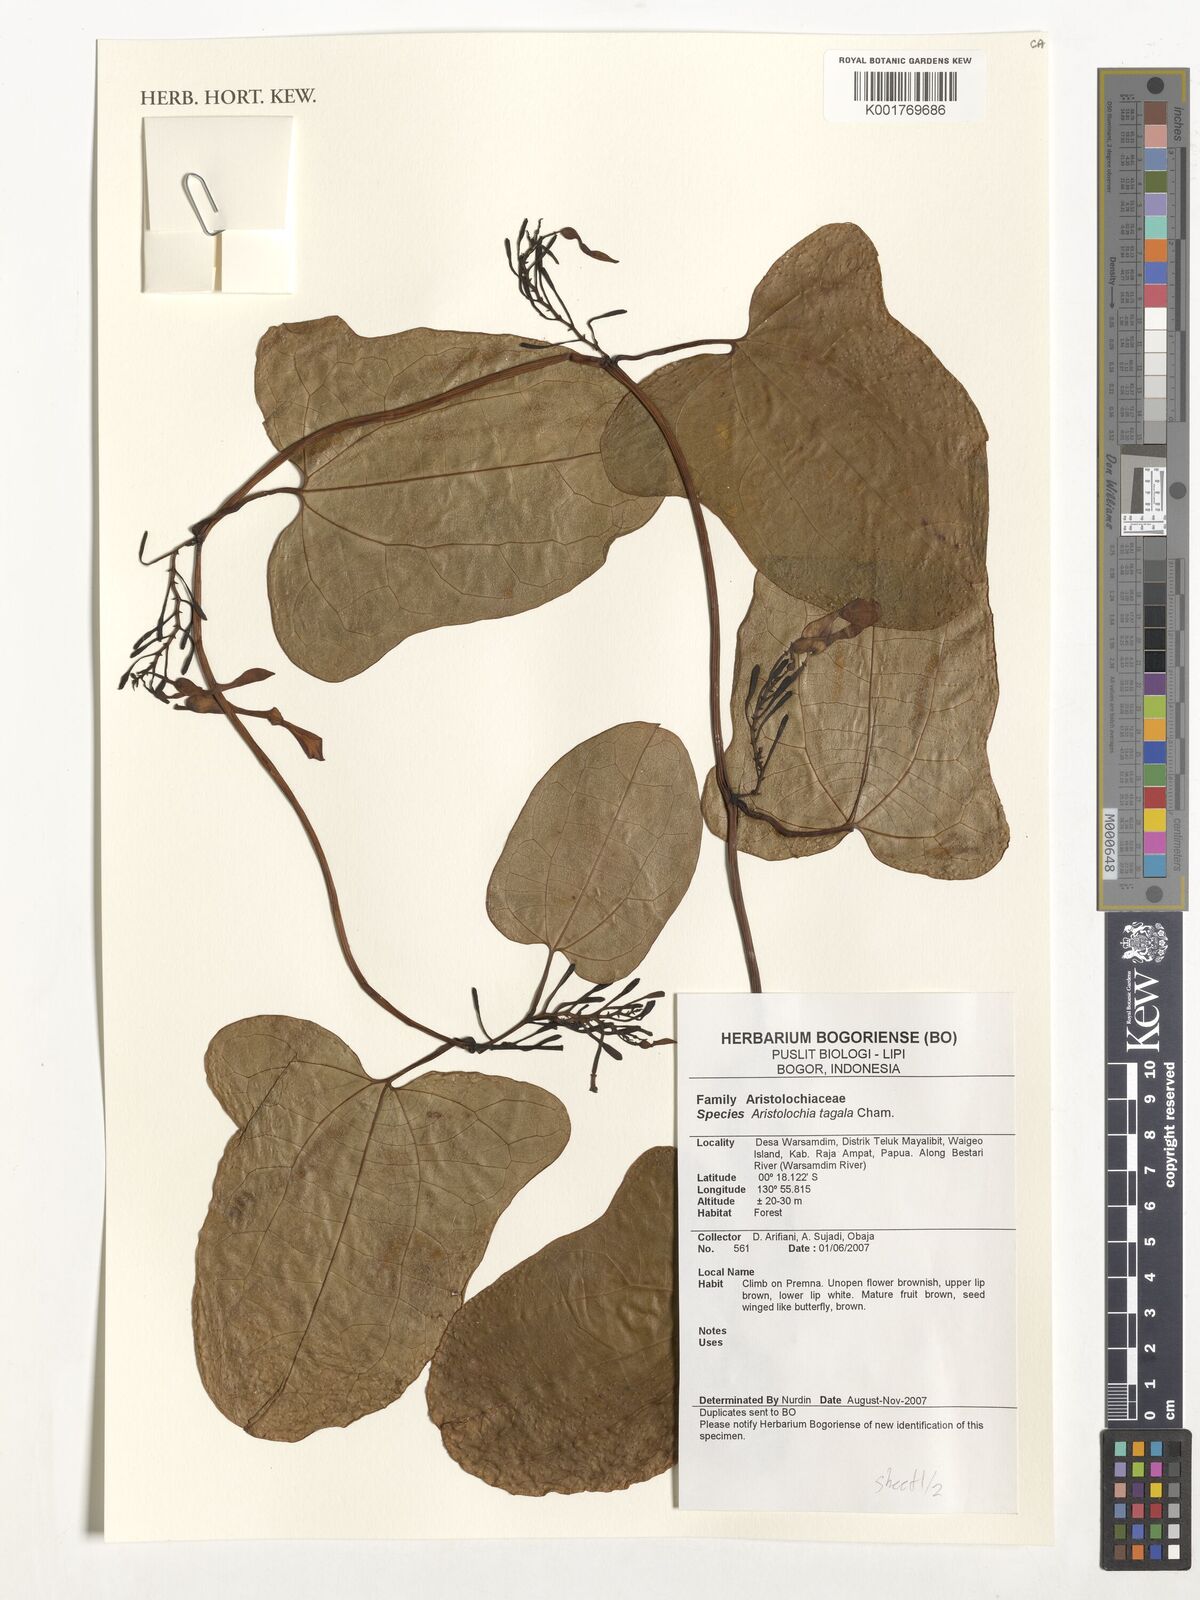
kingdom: Plantae
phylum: Tracheophyta
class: Magnoliopsida
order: Piperales
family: Aristolochiaceae
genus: Aristolochia
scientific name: Aristolochia acuminata
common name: Indian birthwort
